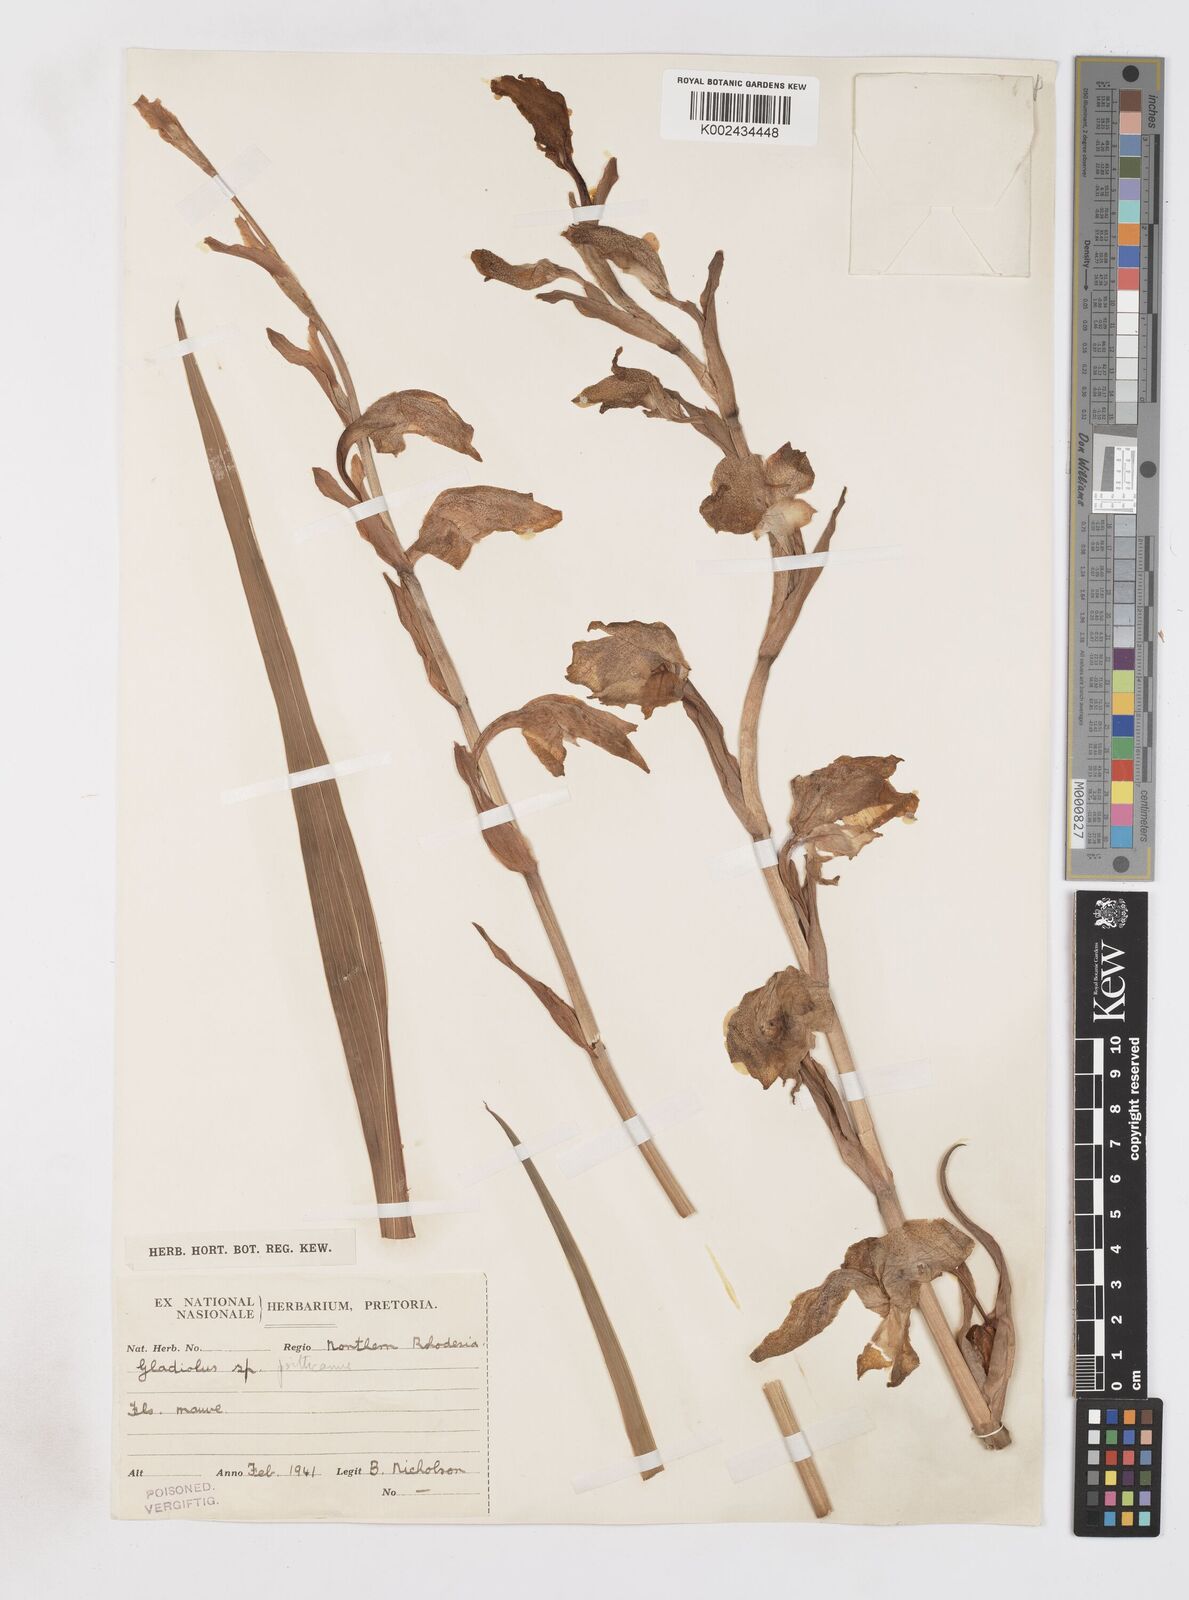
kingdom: Plantae
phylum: Tracheophyta
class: Liliopsida
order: Asparagales
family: Iridaceae
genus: Gladiolus
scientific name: Gladiolus dalenii
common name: Cornflag
